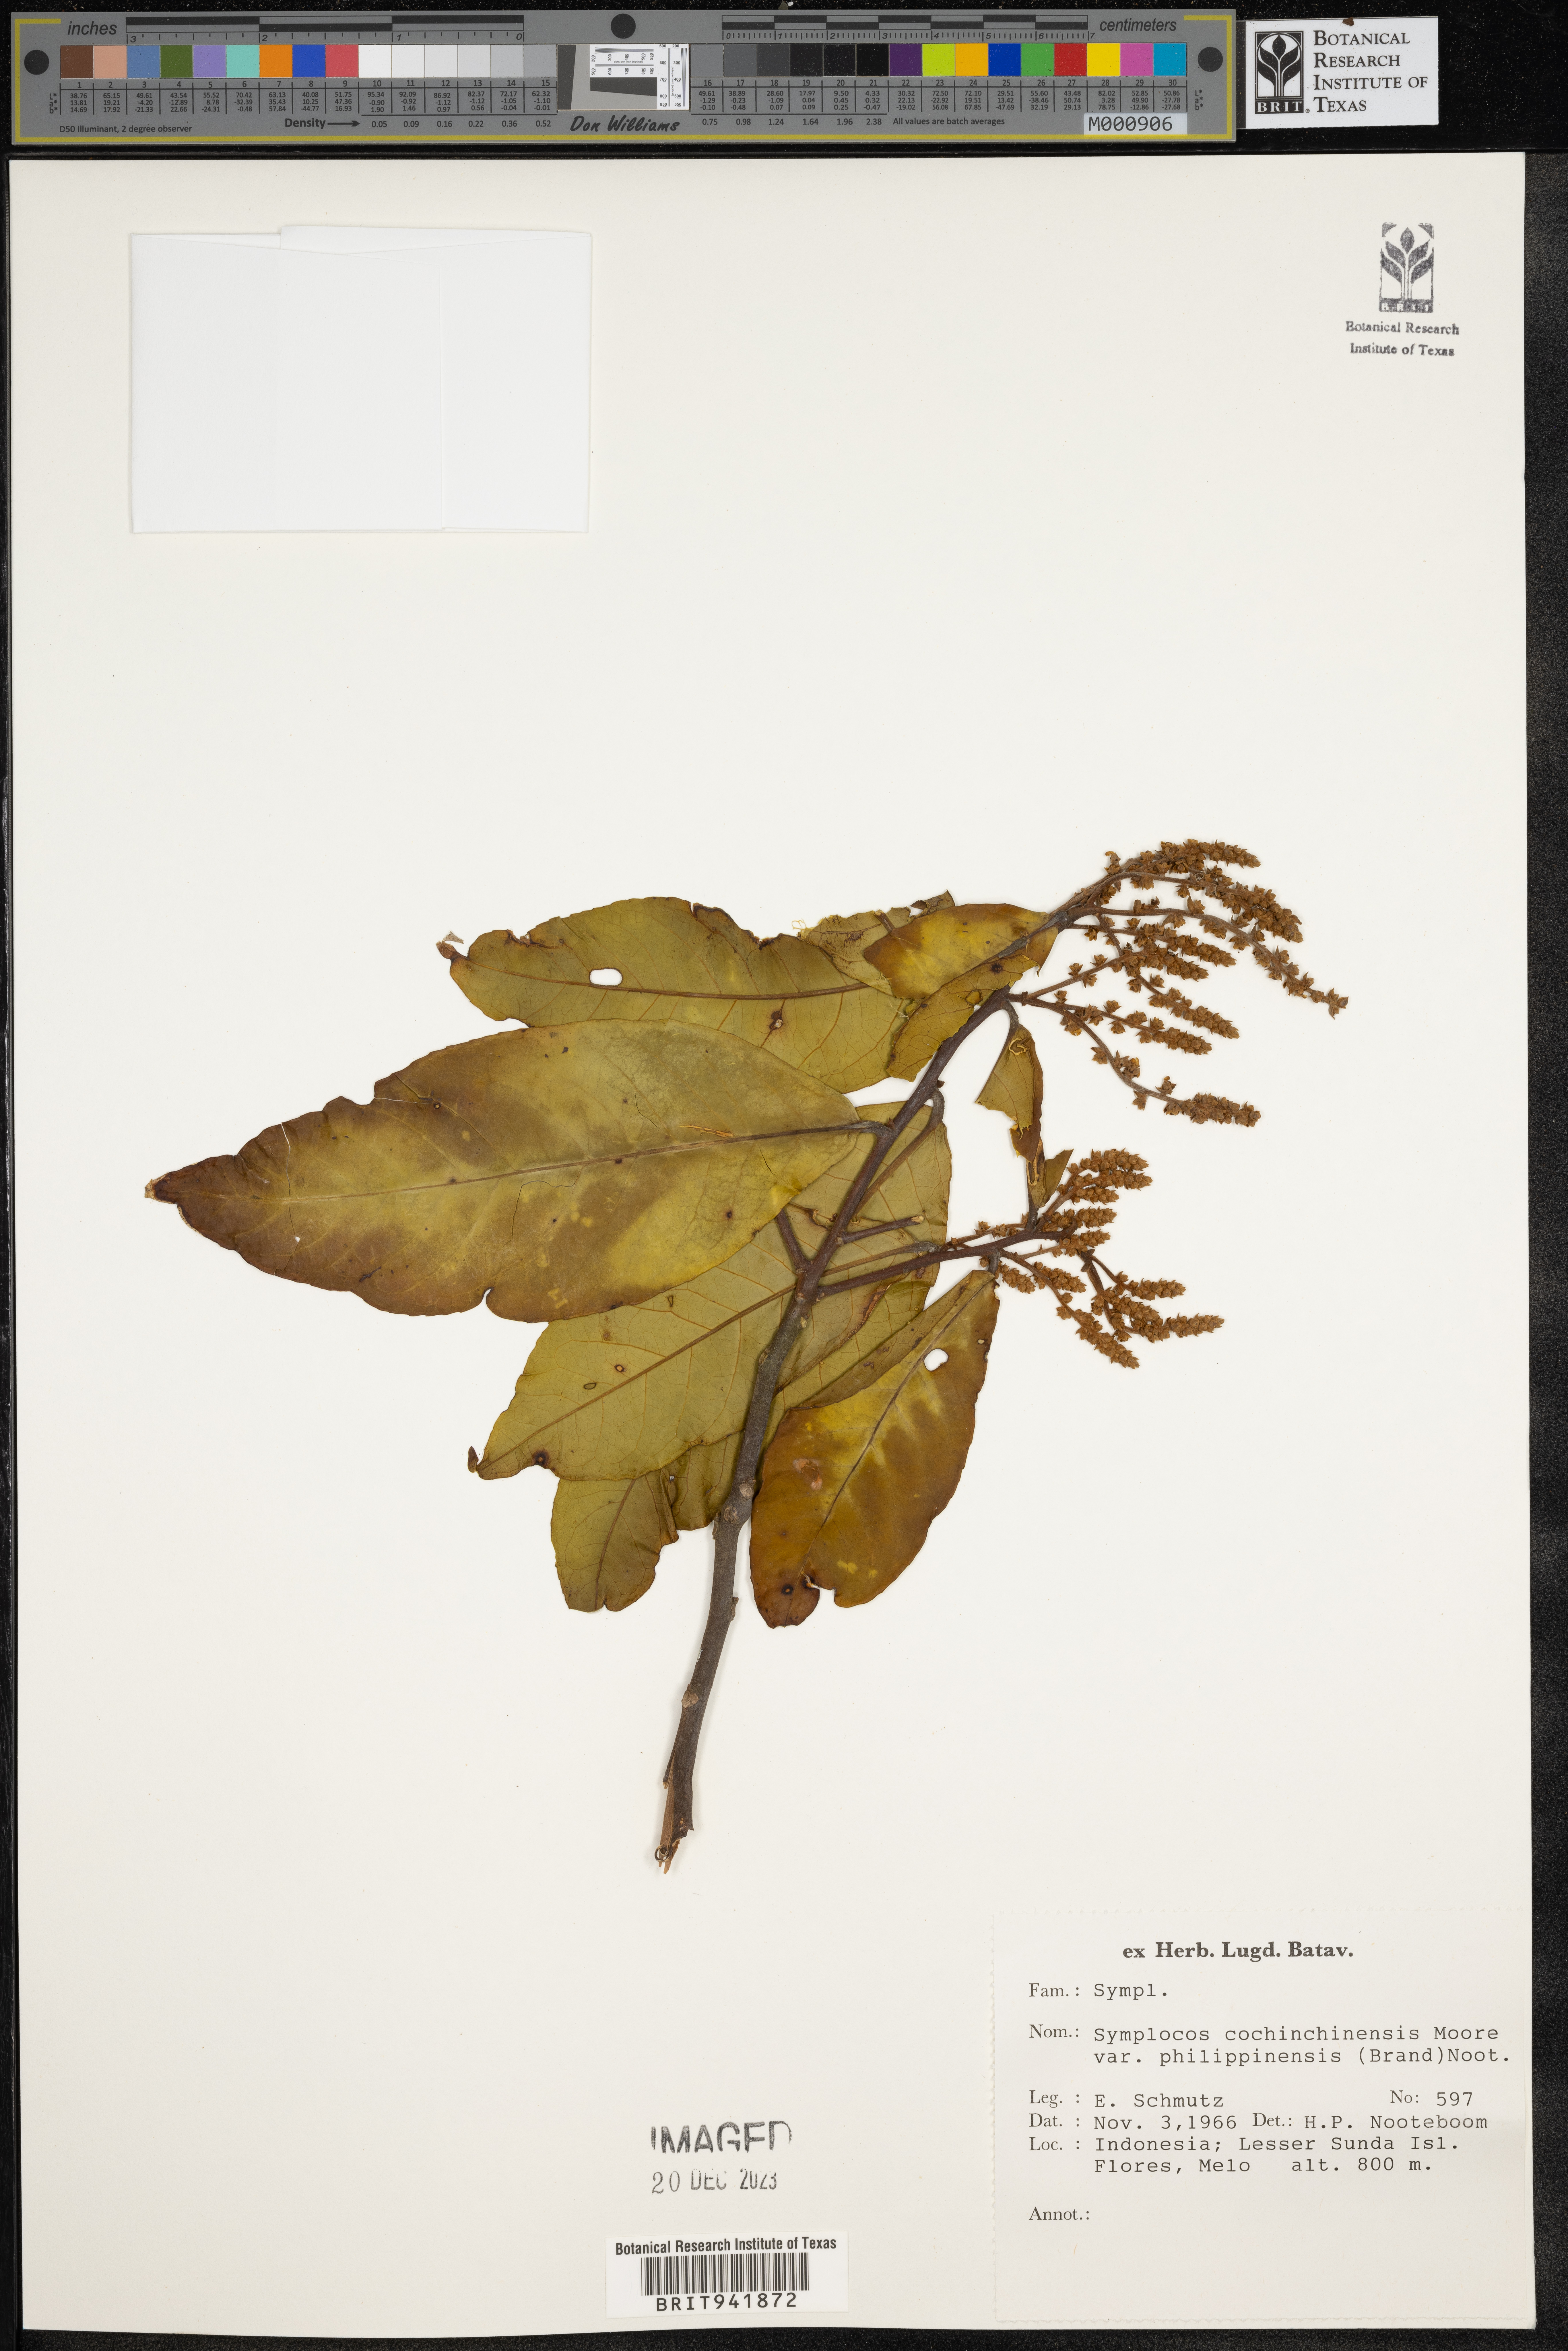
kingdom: Plantae
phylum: Tracheophyta
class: Magnoliopsida
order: Ericales
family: Symplocaceae
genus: Symplocos
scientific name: Symplocos cochinchinensis
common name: Buff hazelwood
